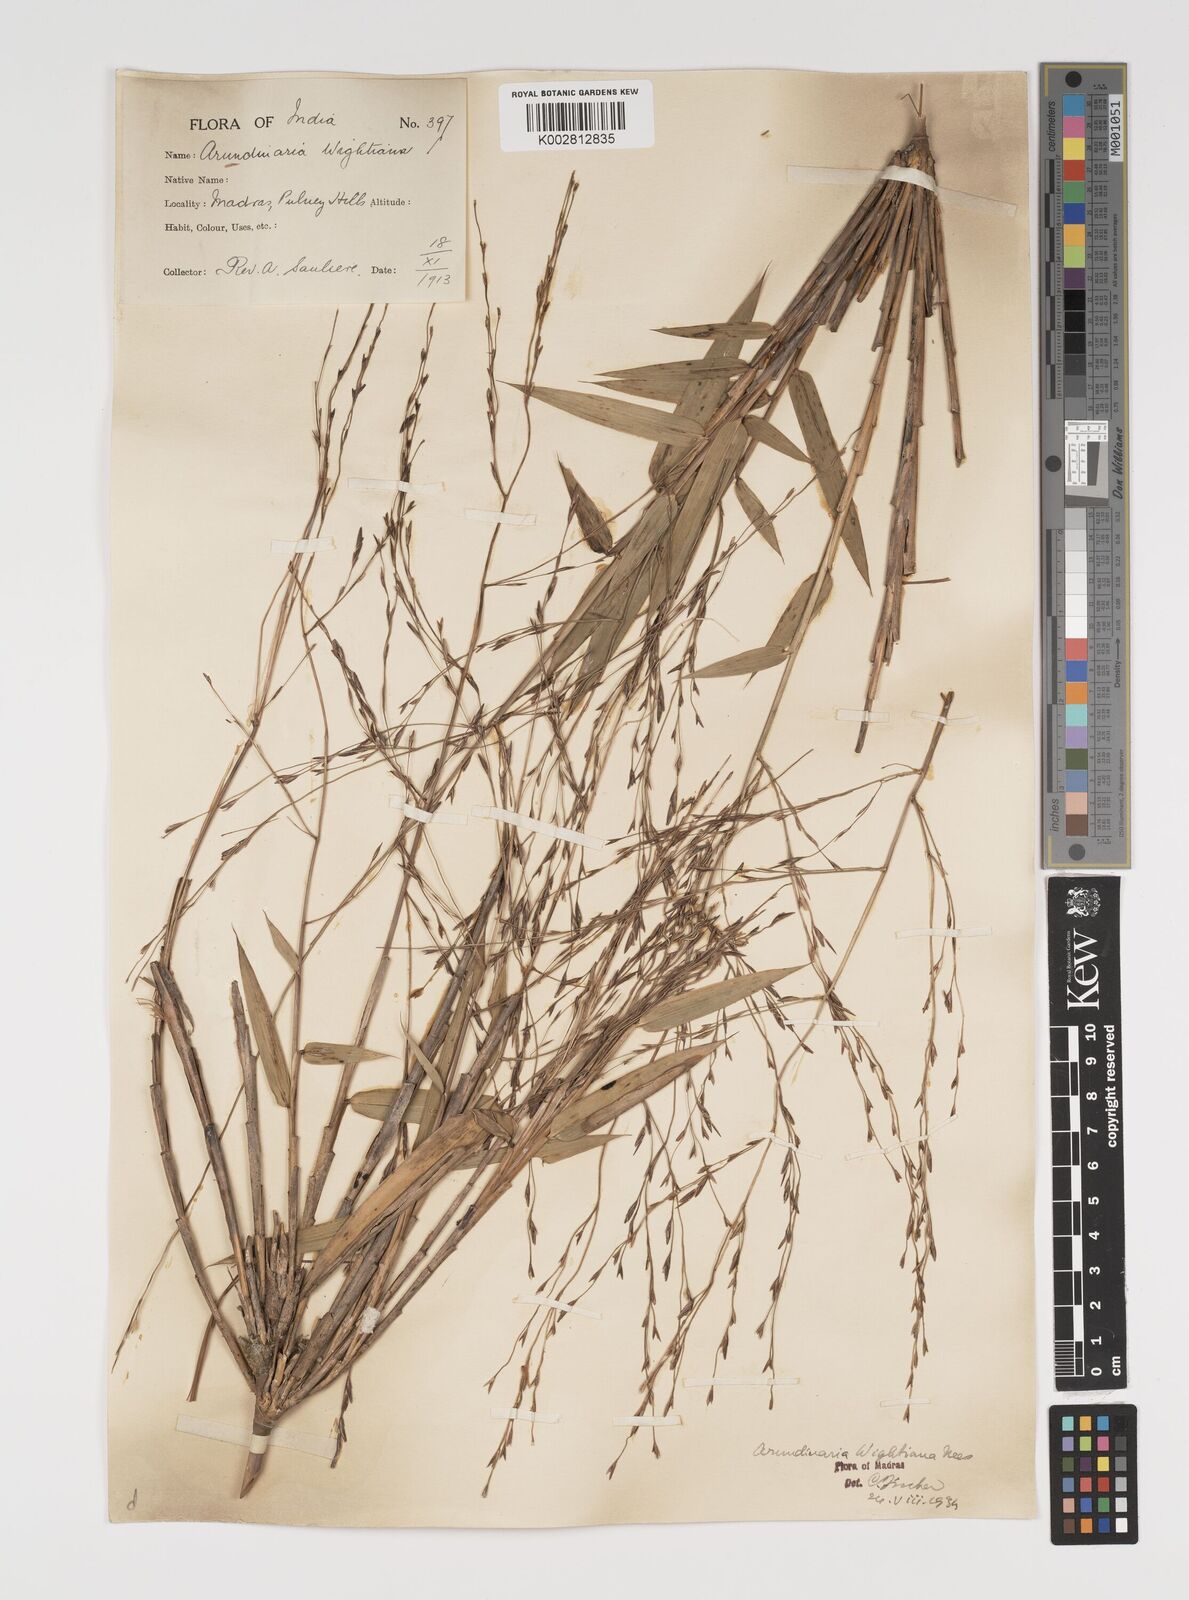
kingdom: Plantae
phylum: Tracheophyta
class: Liliopsida
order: Poales
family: Poaceae
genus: Kuruna
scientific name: Kuruna walkeriana
